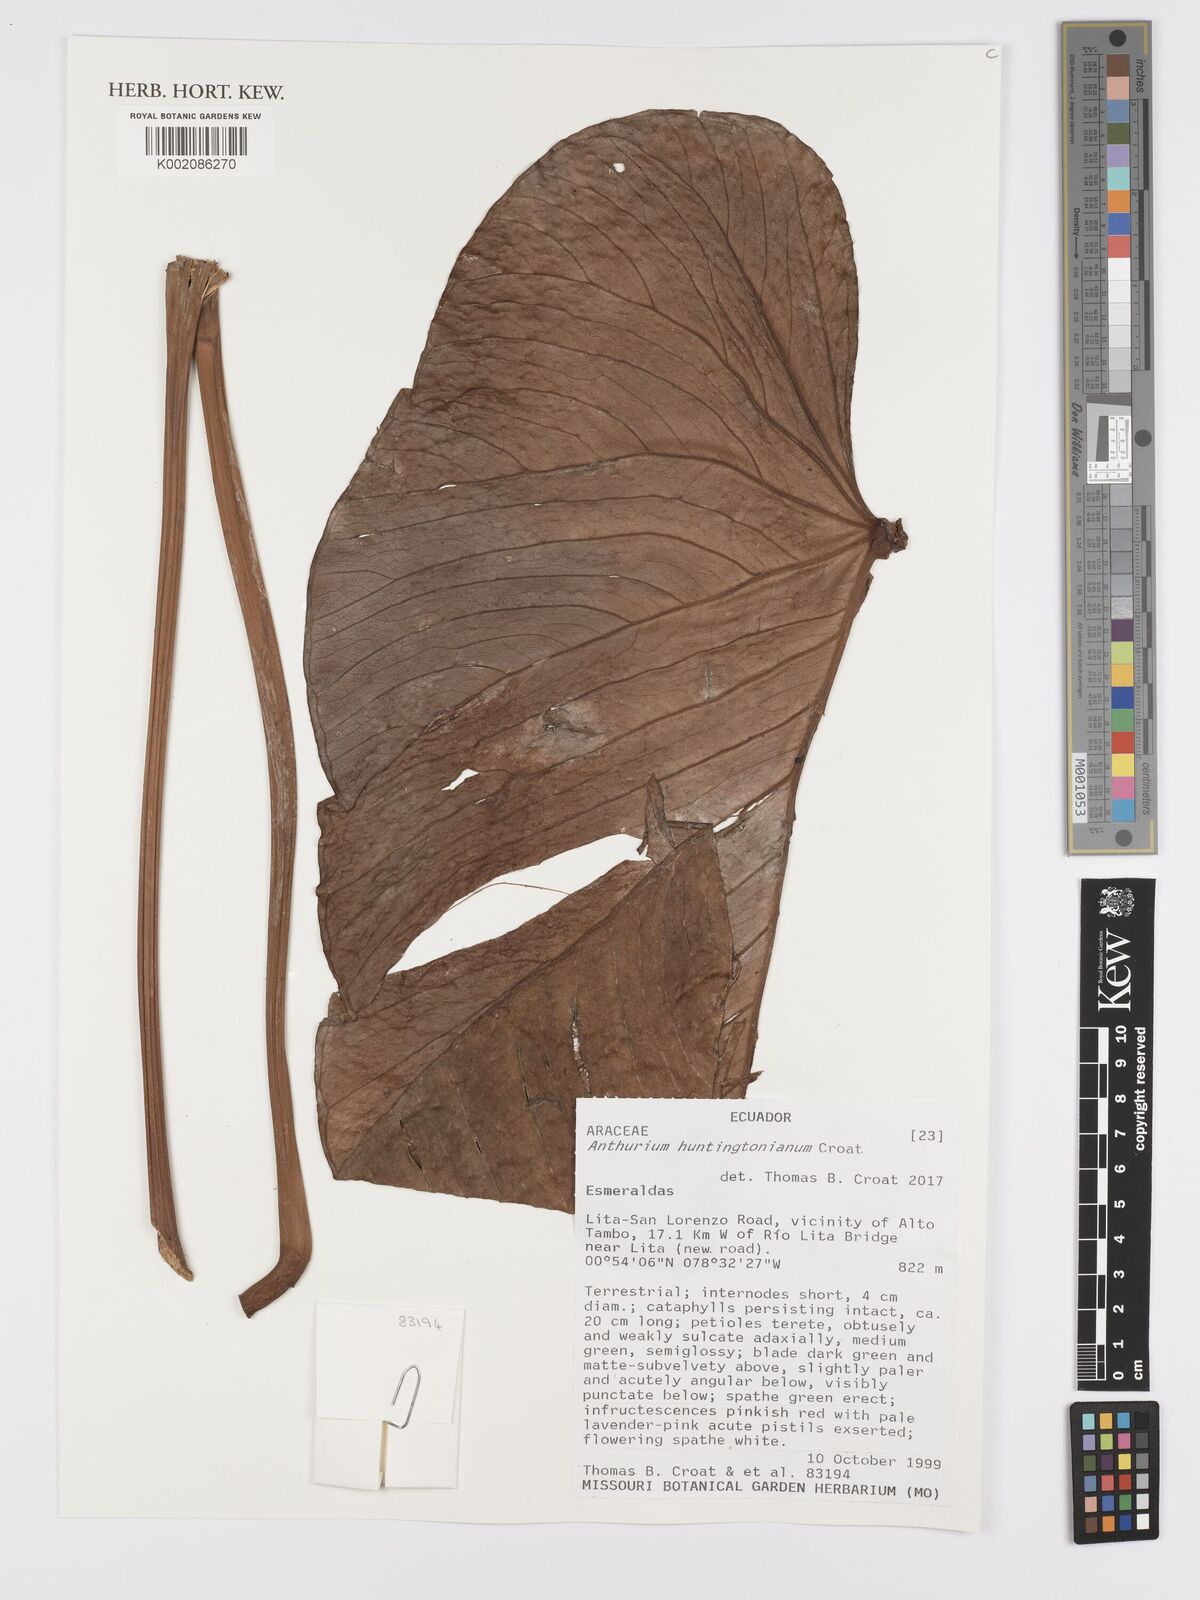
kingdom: Plantae
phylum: Tracheophyta
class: Liliopsida
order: Alismatales
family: Araceae
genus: Anthurium
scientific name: Anthurium
